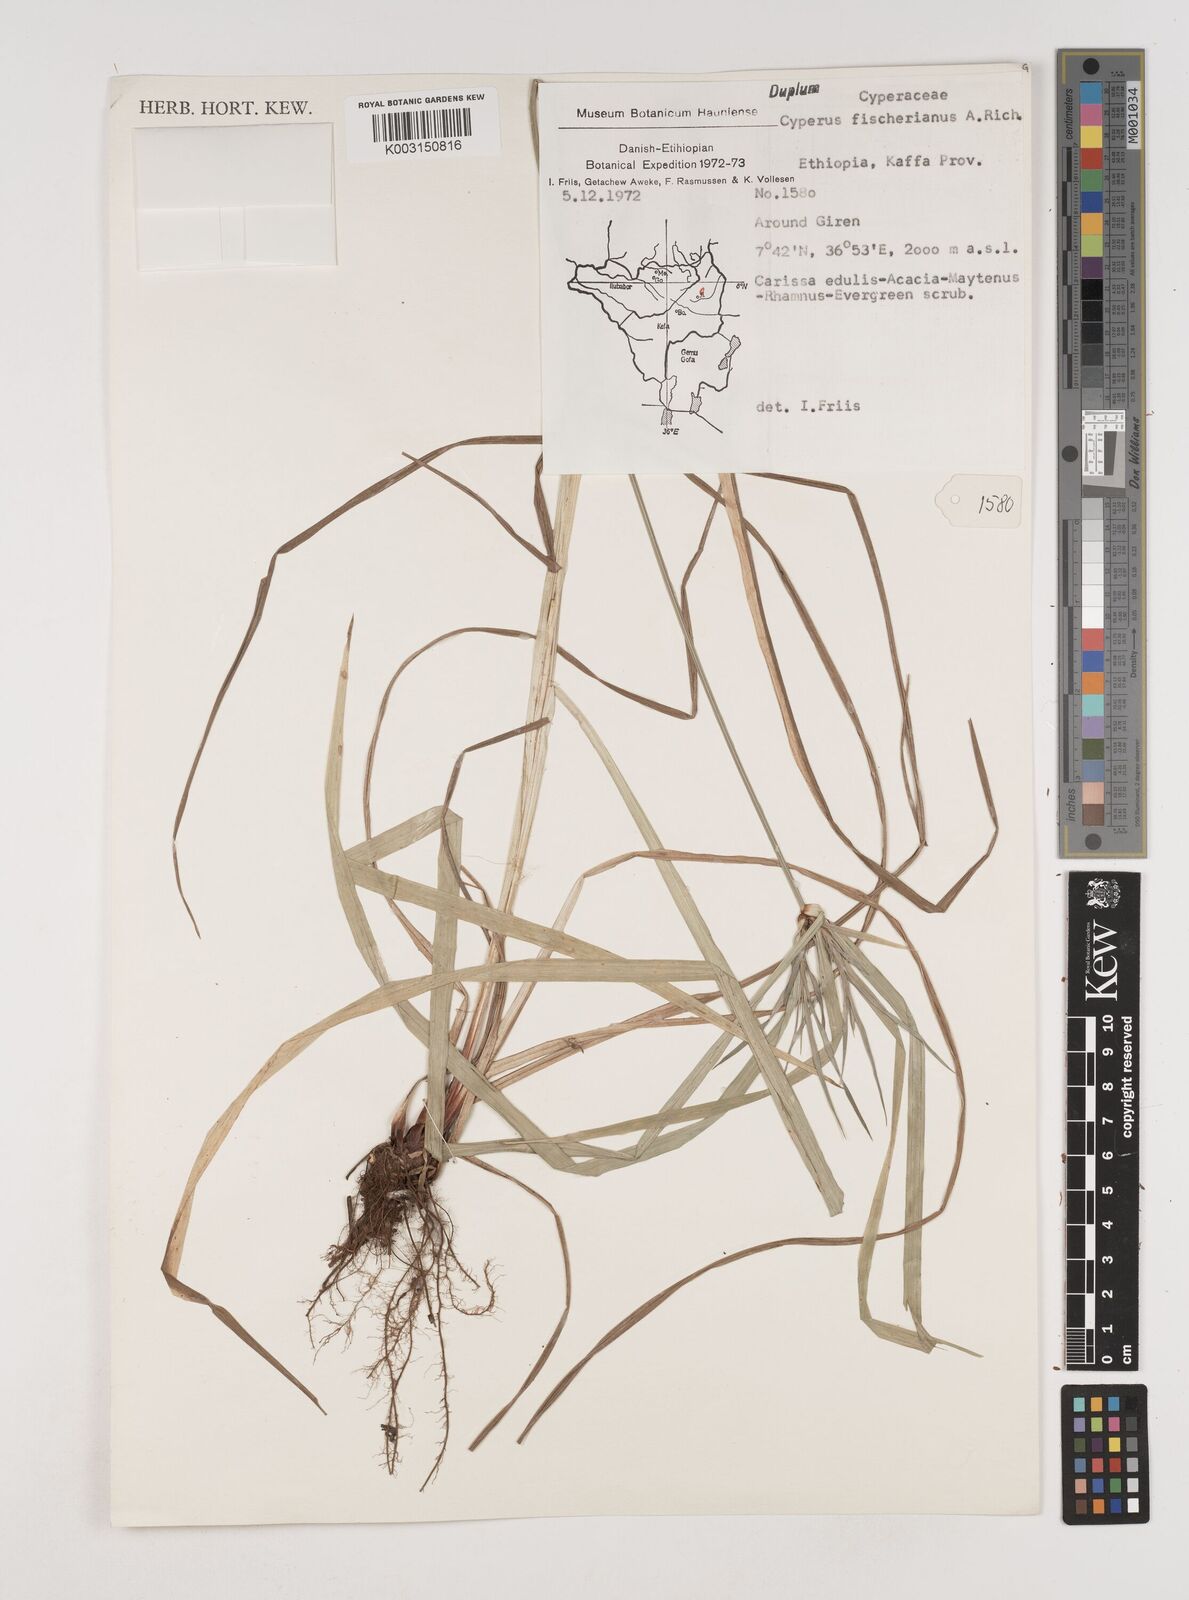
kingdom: Plantae
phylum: Tracheophyta
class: Liliopsida
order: Poales
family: Cyperaceae
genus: Cyperus
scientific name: Cyperus fischerianus
